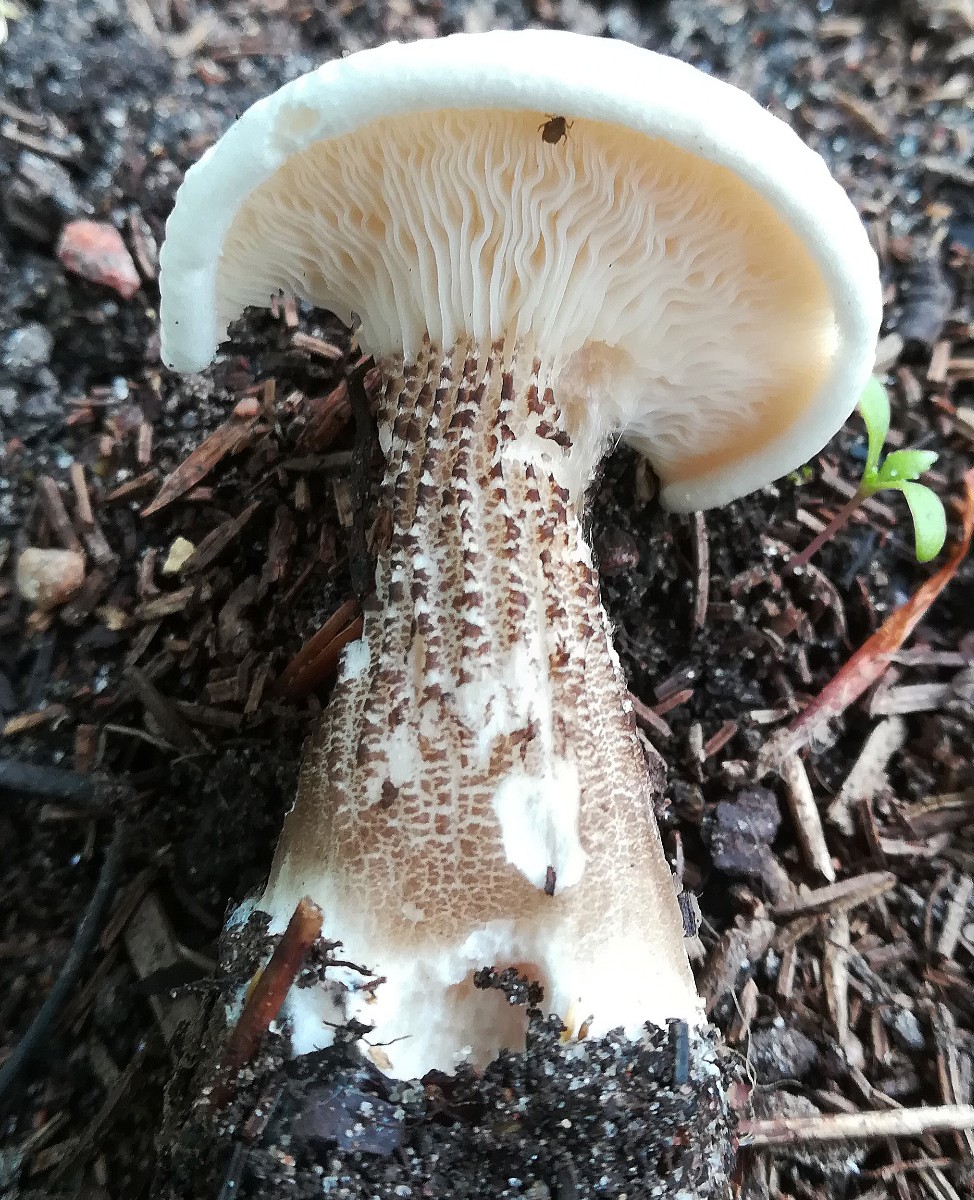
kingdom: Fungi
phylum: Basidiomycota
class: Agaricomycetes
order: Agaricales
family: Tricholomataceae
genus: Melanoleuca
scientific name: Melanoleuca verrucipes
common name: rufodet munkehat
